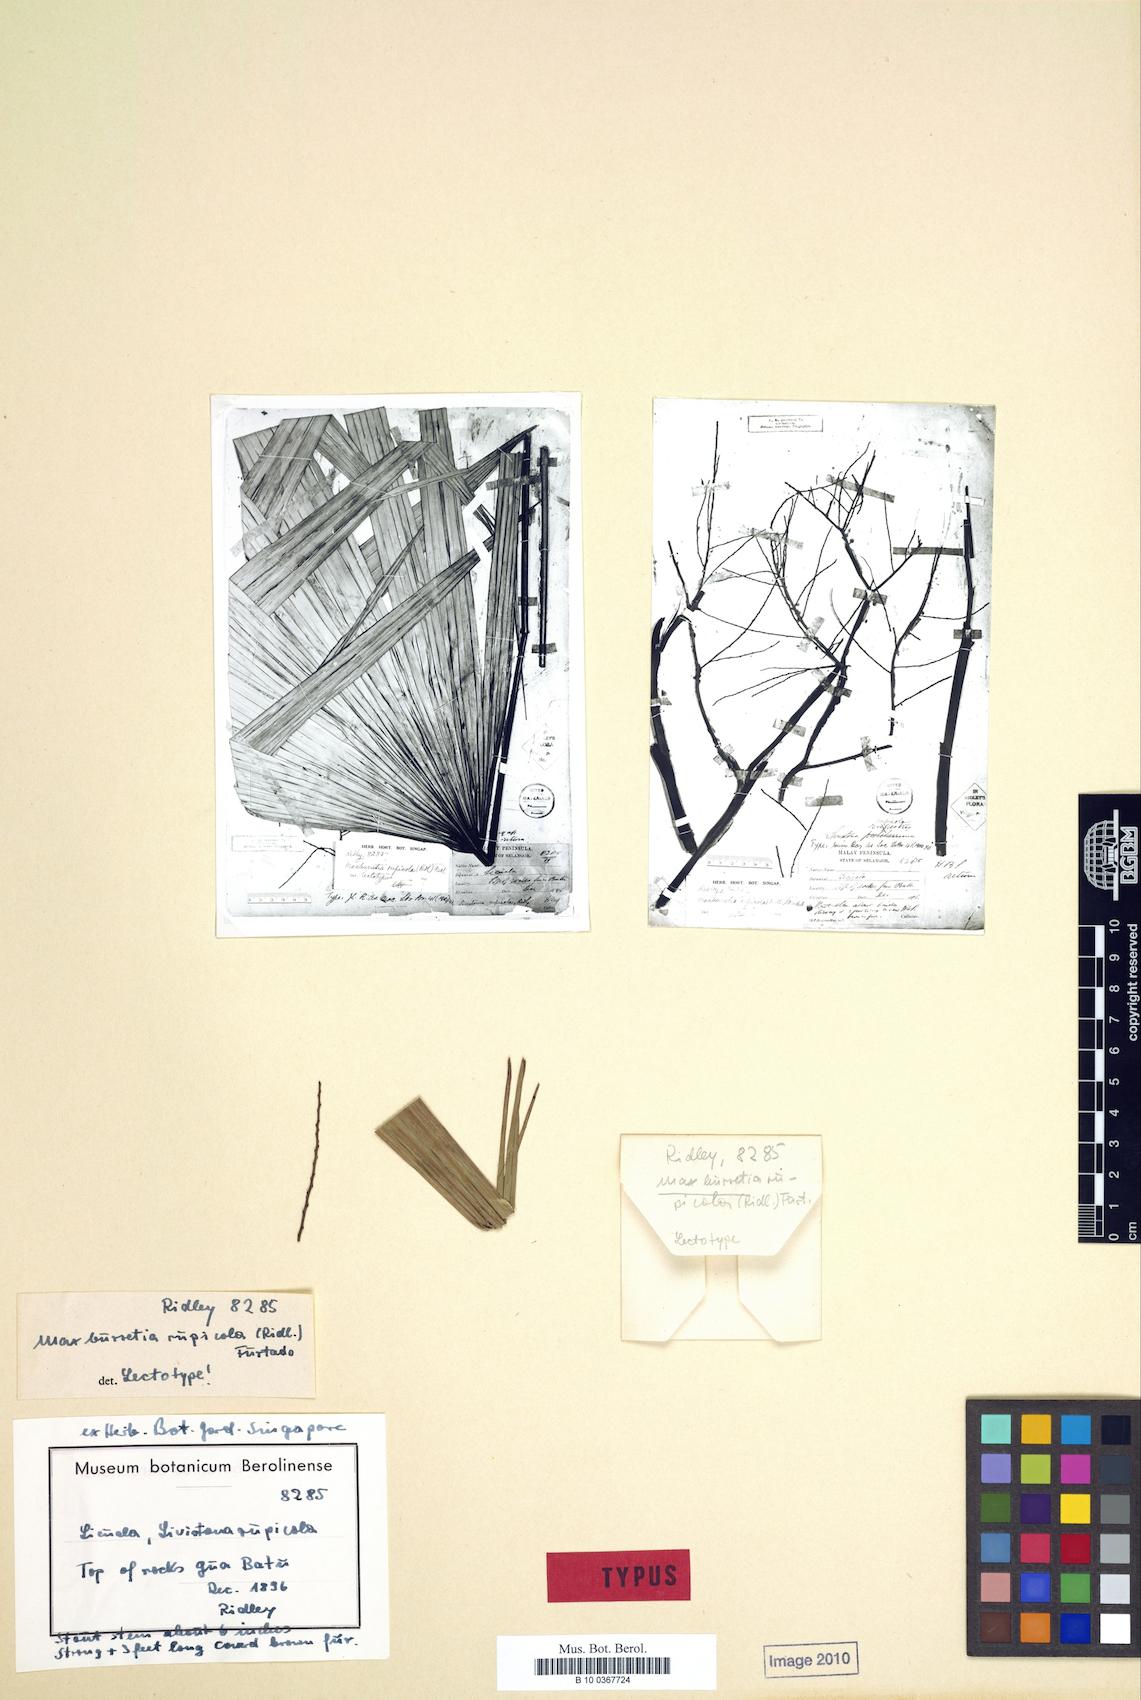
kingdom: Plantae
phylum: Tracheophyta
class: Liliopsida
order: Arecales
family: Arecaceae
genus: Maxburretia
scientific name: Maxburretia rupicola
